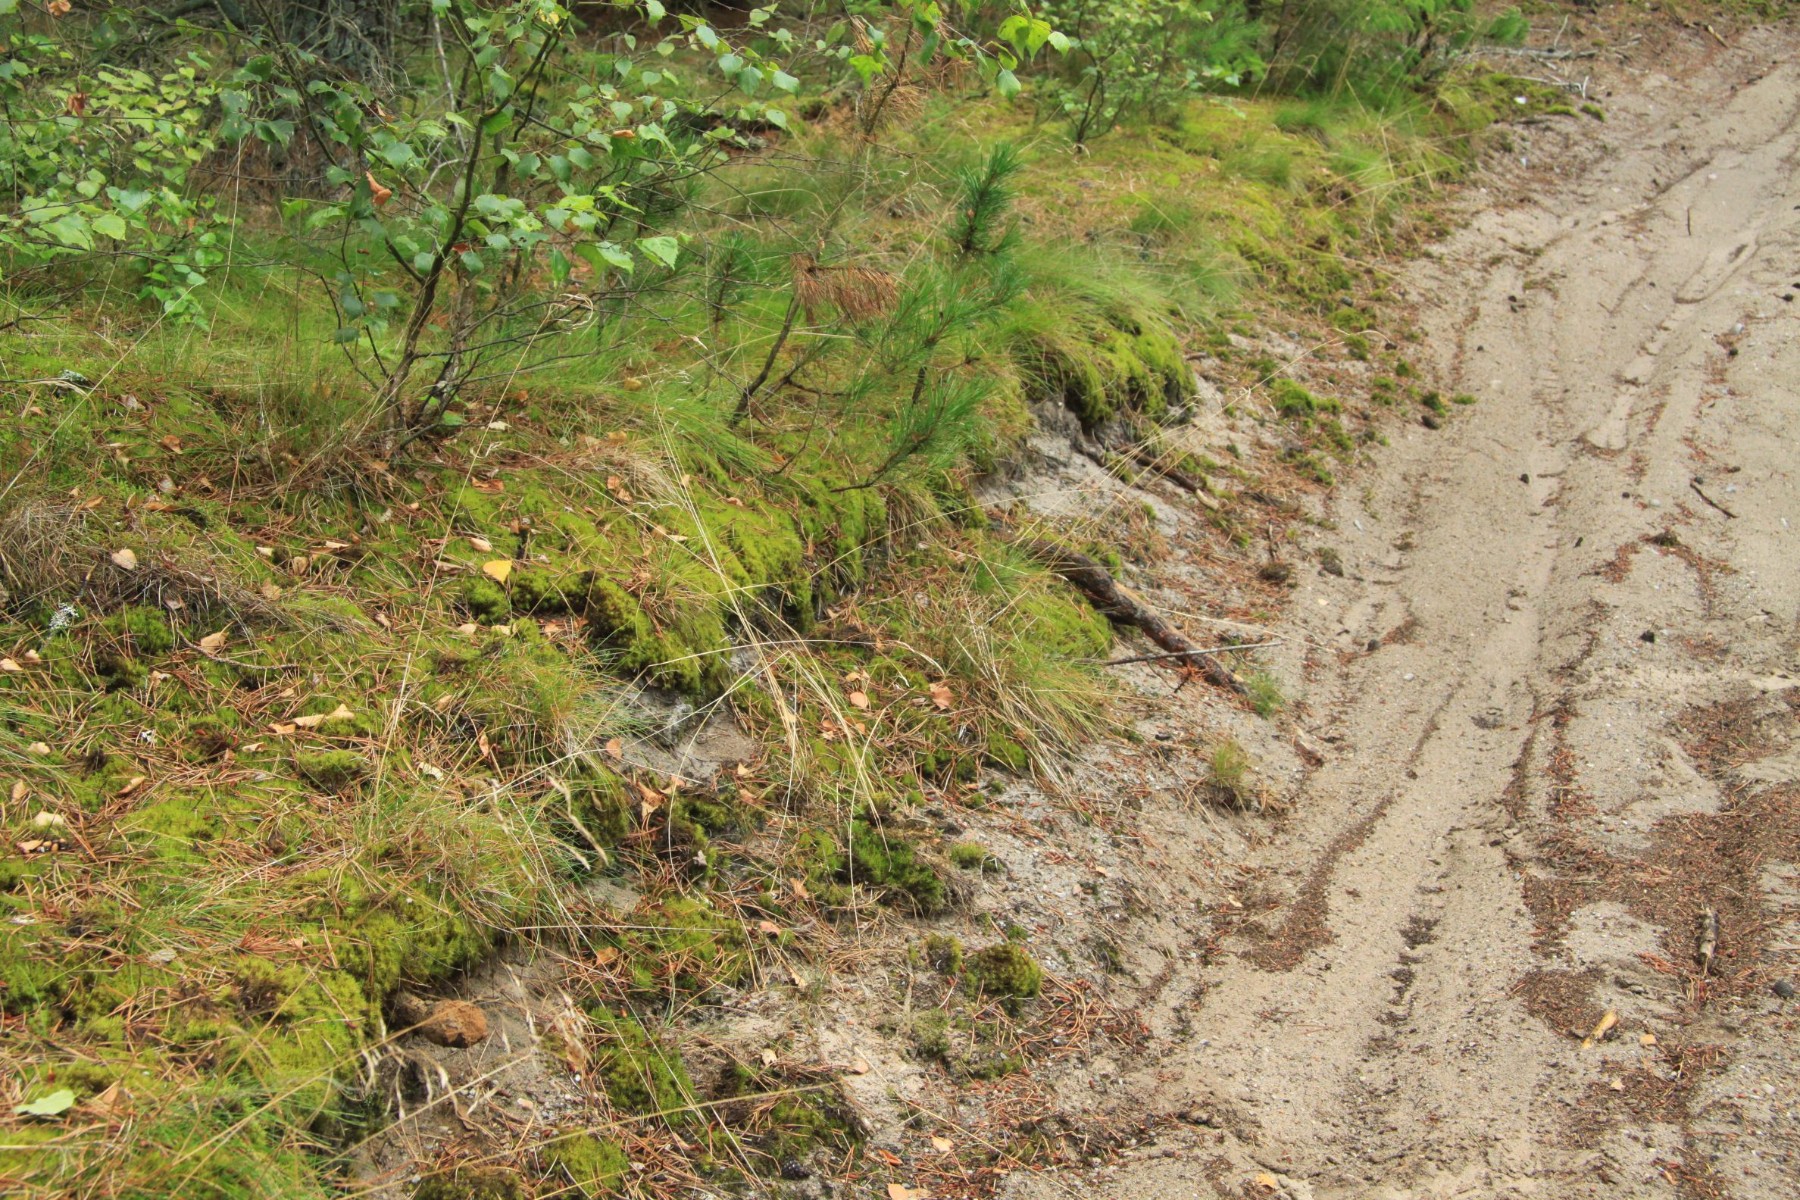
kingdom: Fungi
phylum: Basidiomycota
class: Agaricomycetes
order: Boletales
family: Sclerodermataceae
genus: Pisolithus
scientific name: Pisolithus capsulifer
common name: farvebold
